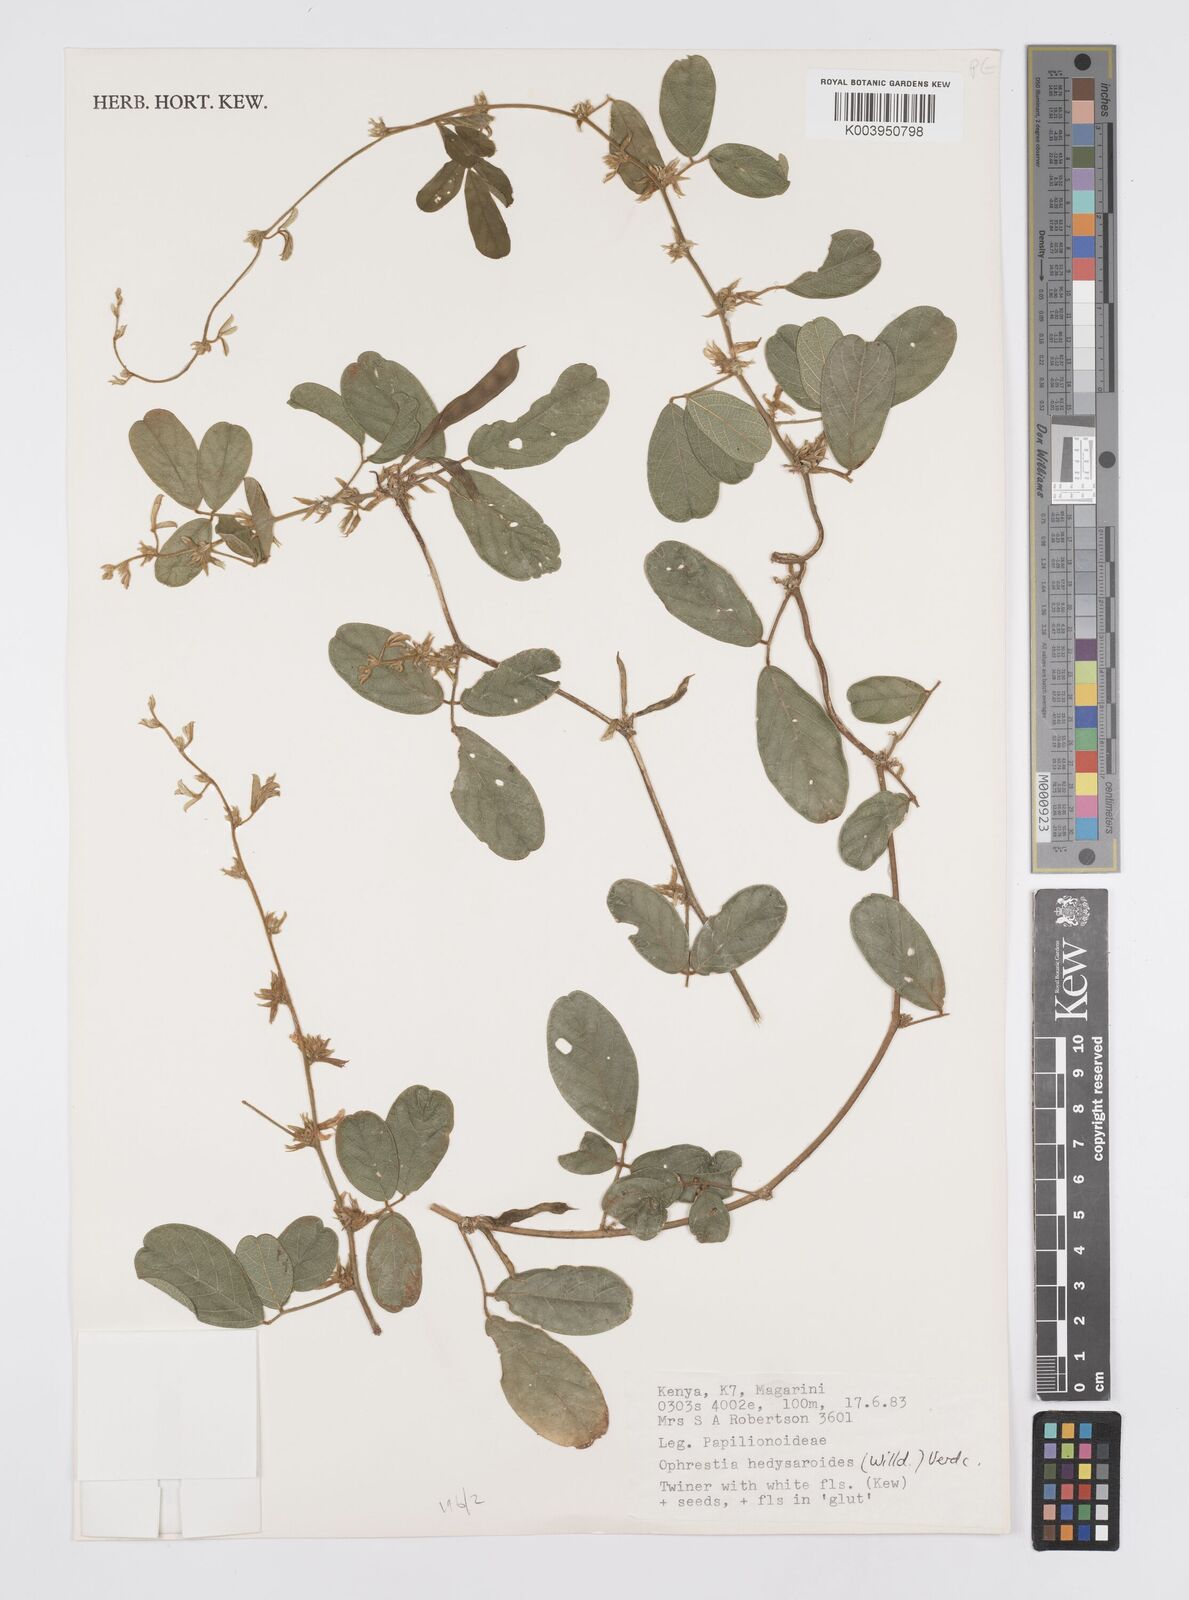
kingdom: Plantae
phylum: Tracheophyta
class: Magnoliopsida
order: Fabales
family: Fabaceae
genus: Ophrestia
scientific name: Ophrestia hedysaroides
